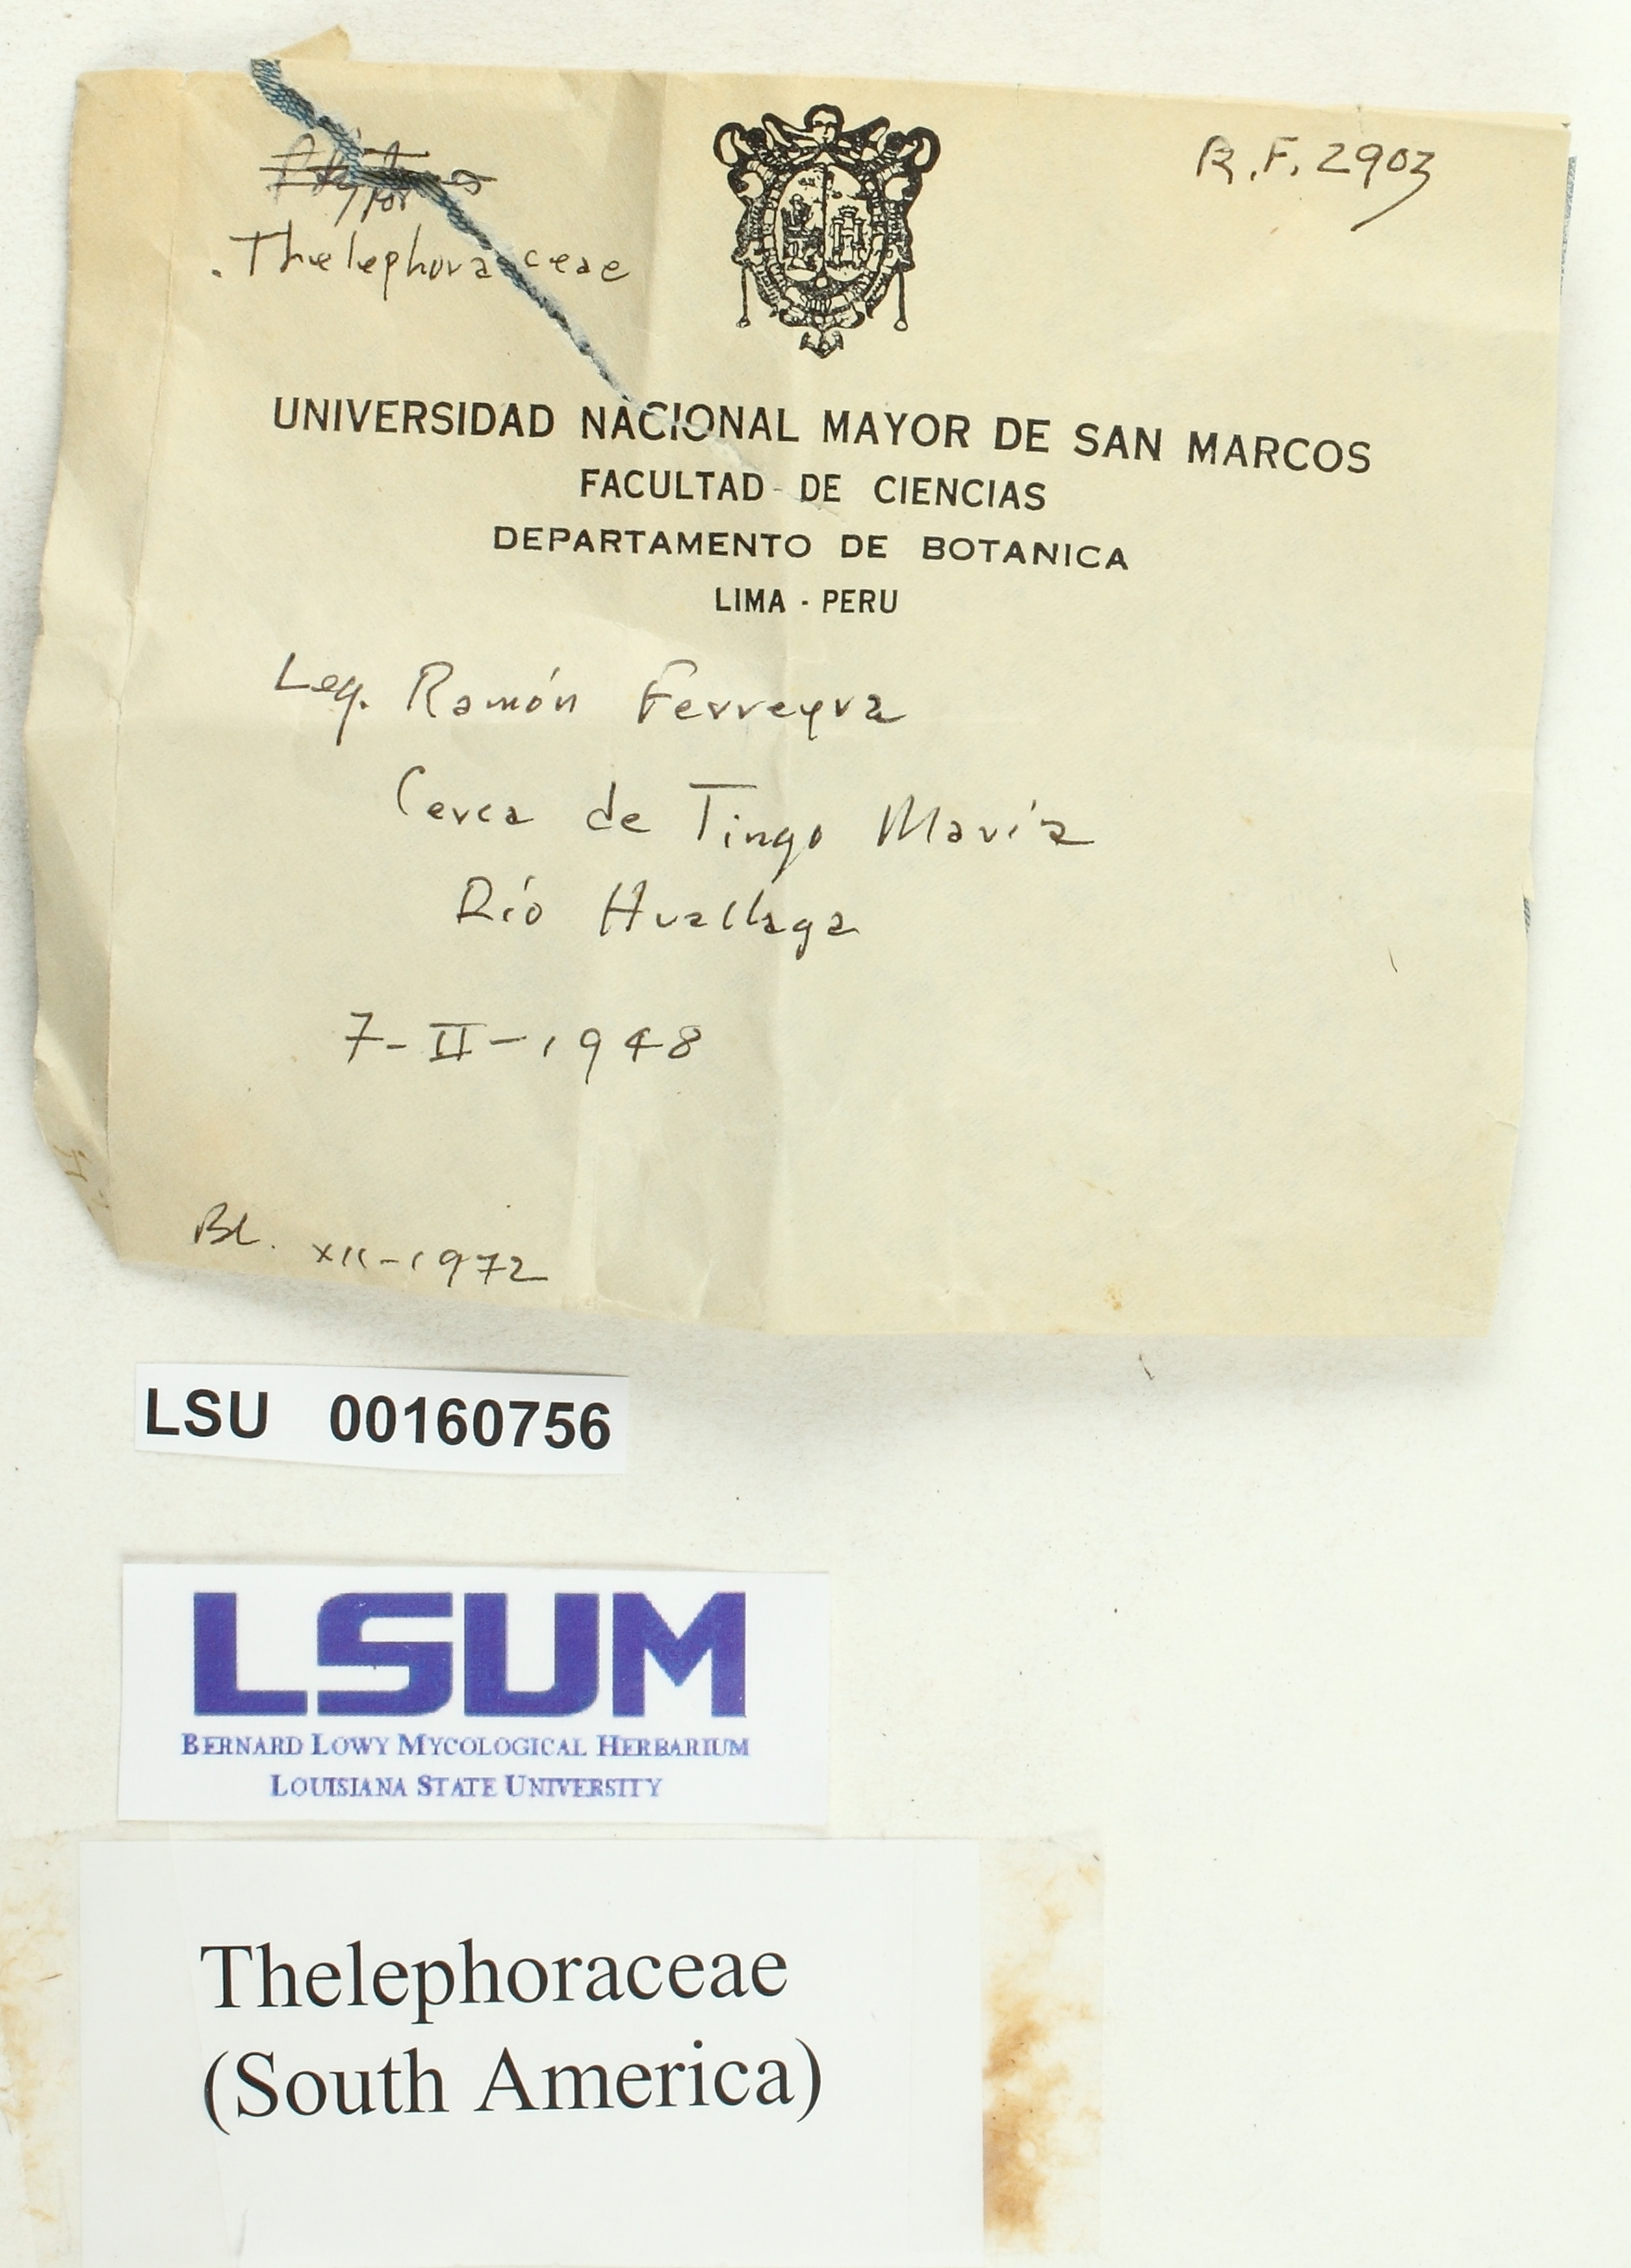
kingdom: Fungi
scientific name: Fungi
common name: Fungi
